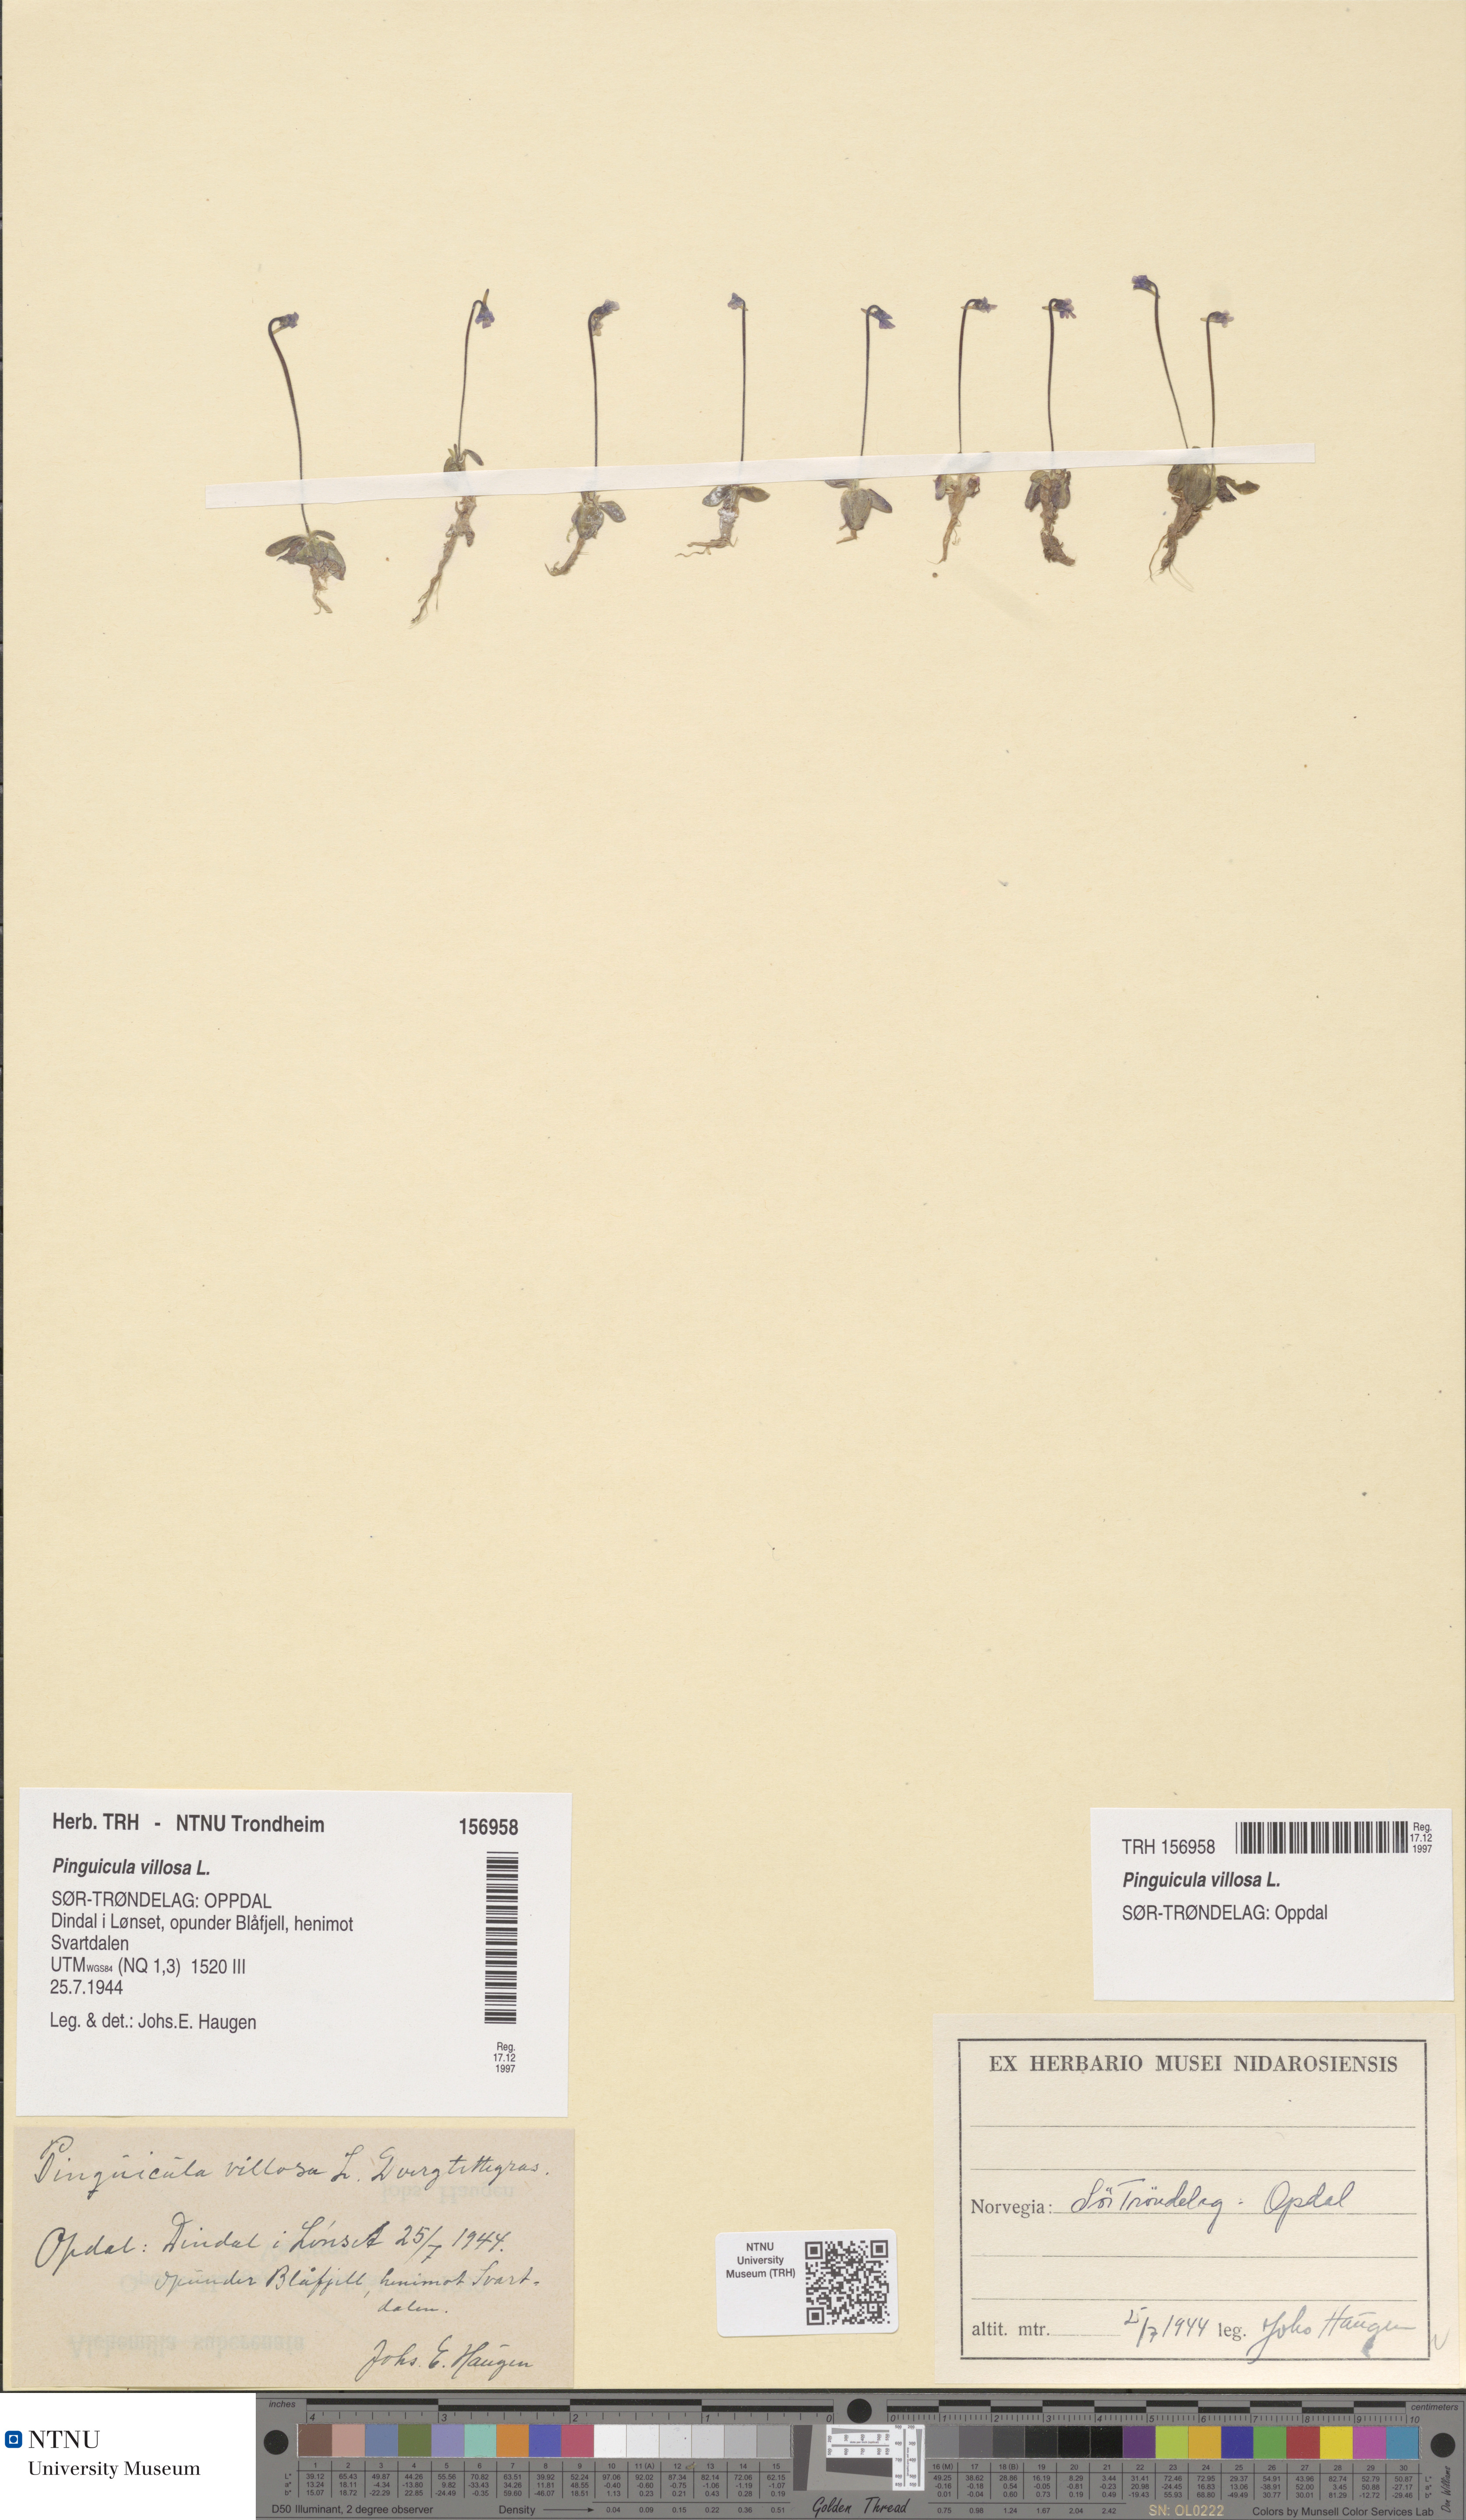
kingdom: Plantae
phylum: Tracheophyta
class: Magnoliopsida
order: Lamiales
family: Lentibulariaceae
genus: Pinguicula
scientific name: Pinguicula villosa
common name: Hairy butterwort
